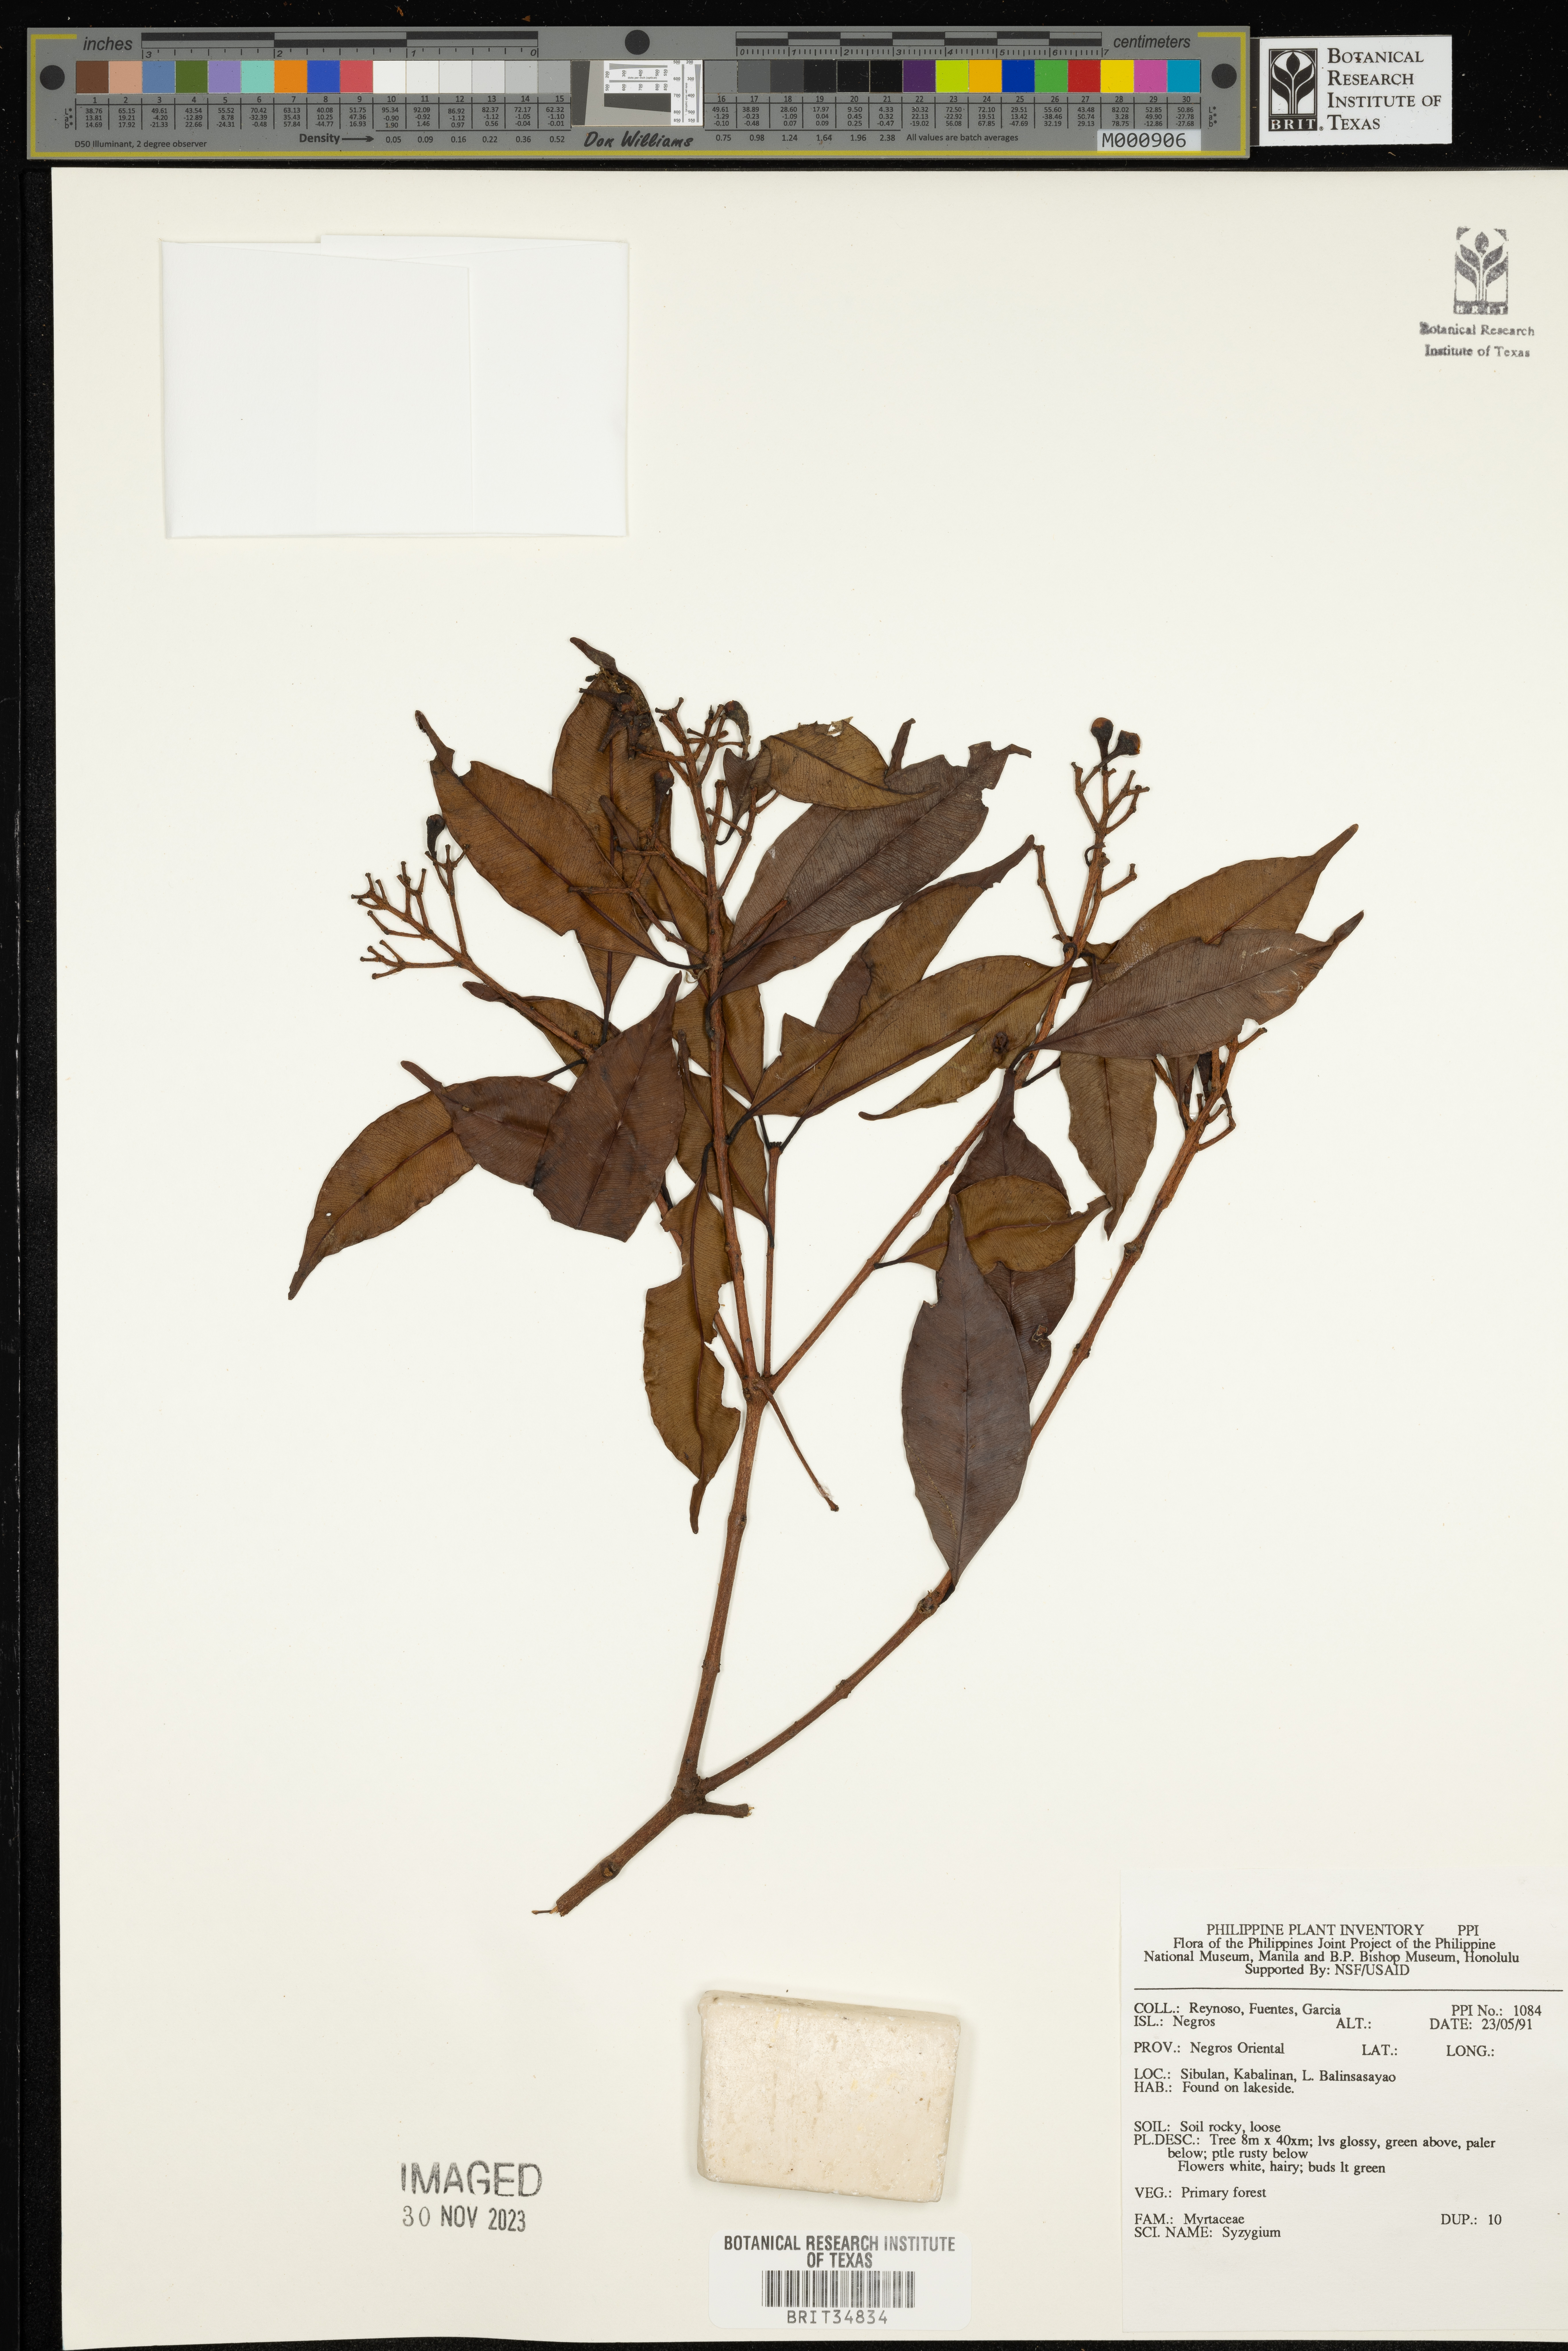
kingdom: Plantae
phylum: Tracheophyta
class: Magnoliopsida
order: Myrtales
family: Myrtaceae
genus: Syzygium
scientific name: Syzygium
